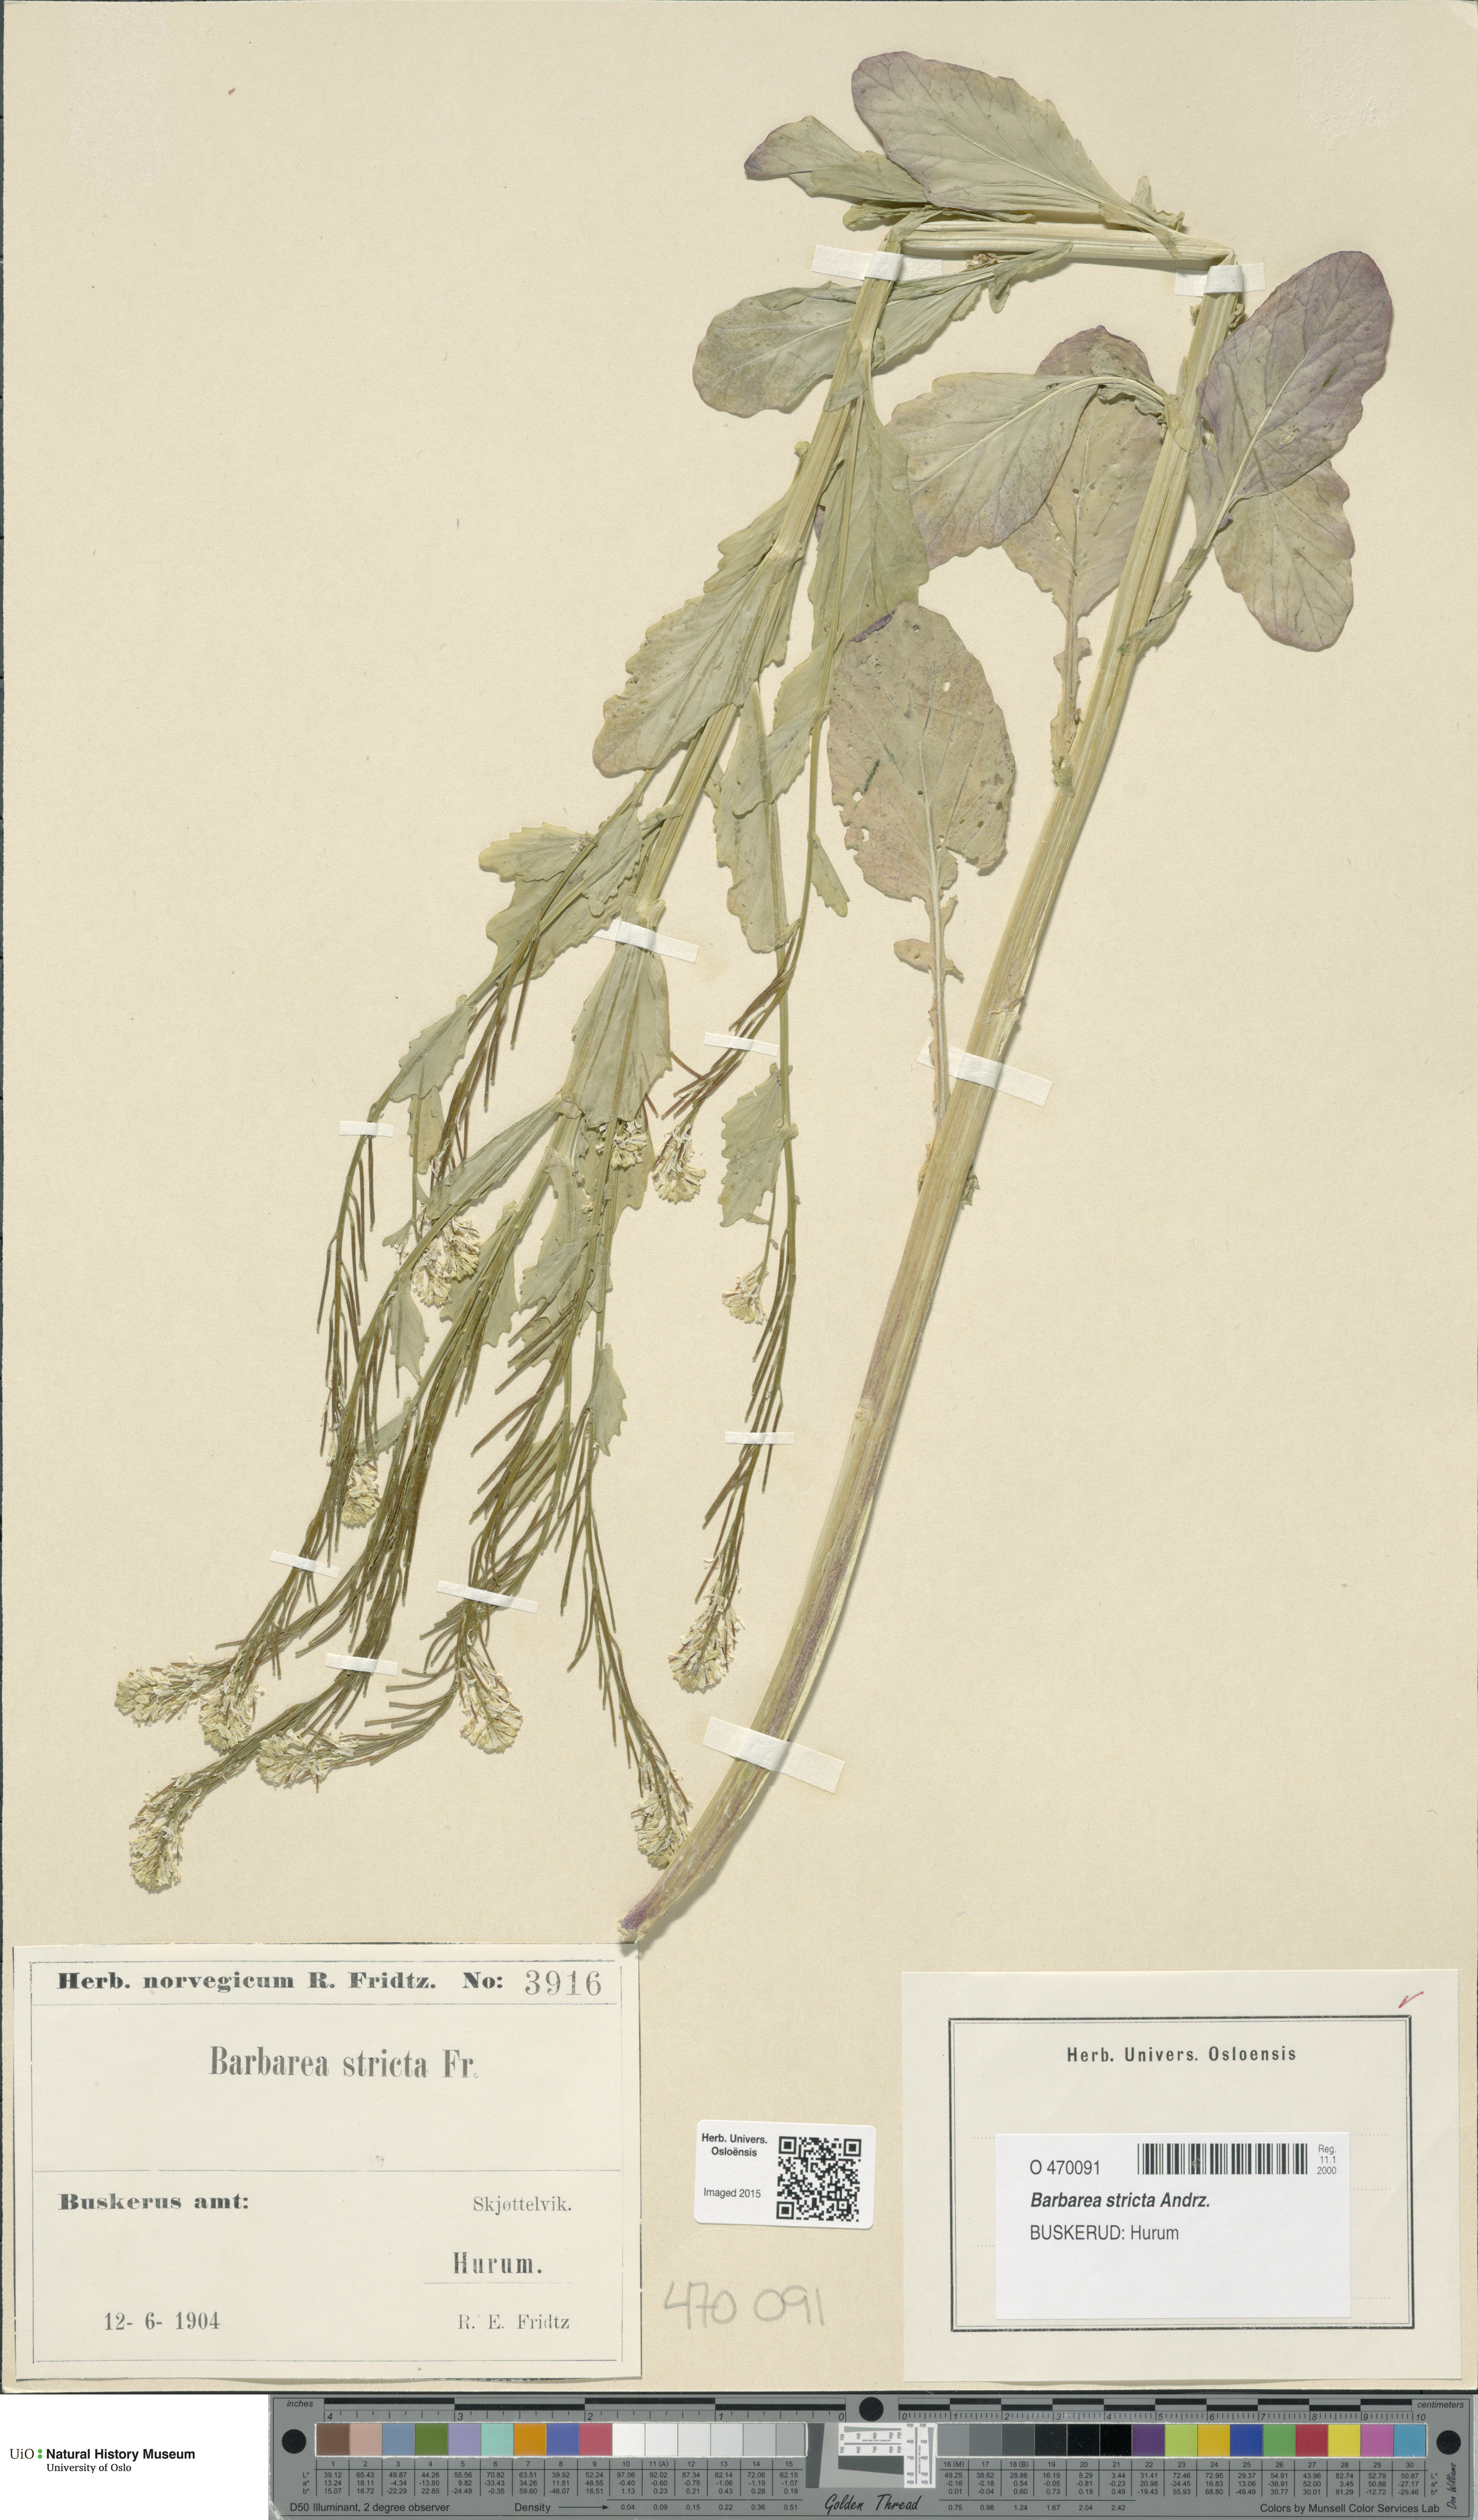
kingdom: Plantae
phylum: Tracheophyta
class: Magnoliopsida
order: Brassicales
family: Brassicaceae
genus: Barbarea
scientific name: Barbarea stricta
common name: Small-flowered winter-cress
